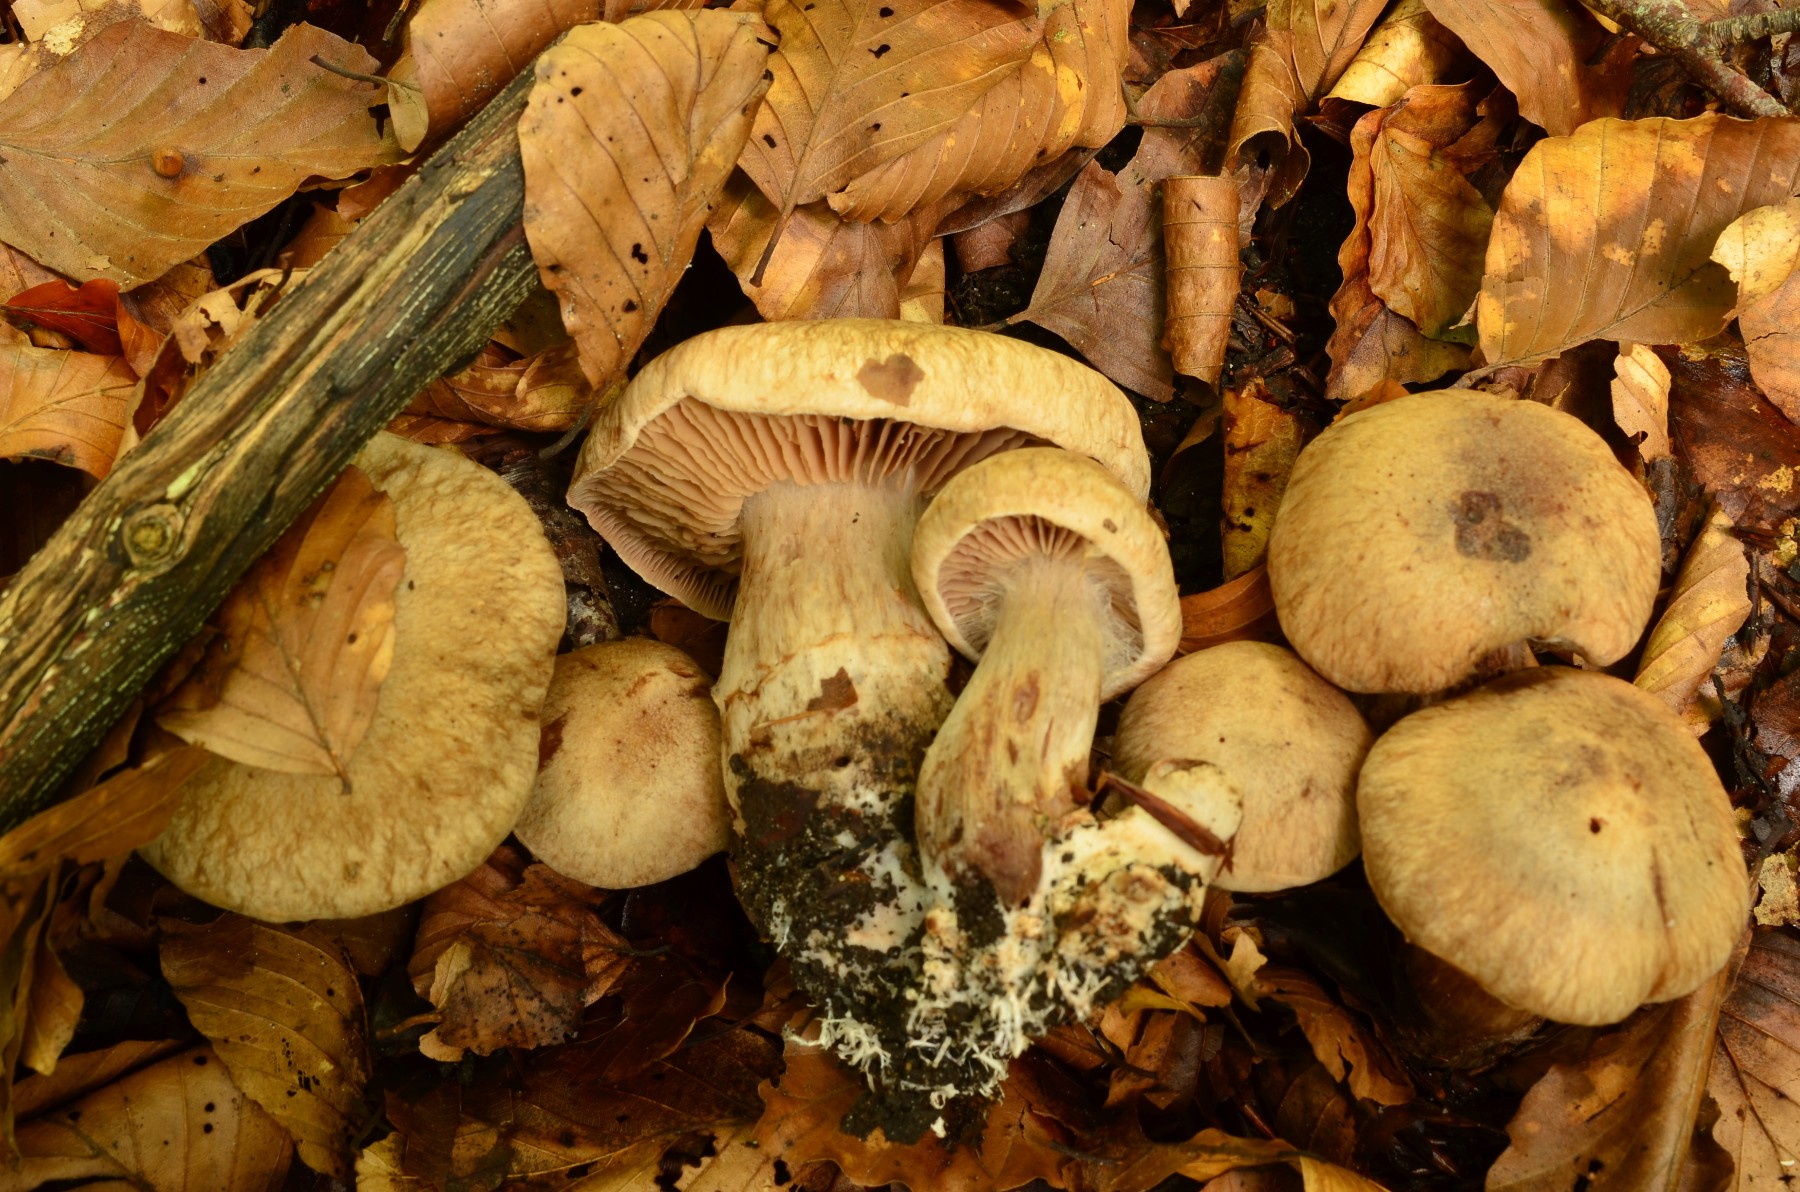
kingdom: Fungi
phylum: Basidiomycota
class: Agaricomycetes
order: Agaricales
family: Cortinariaceae
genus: Cortinarius
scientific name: Cortinarius sociatus
